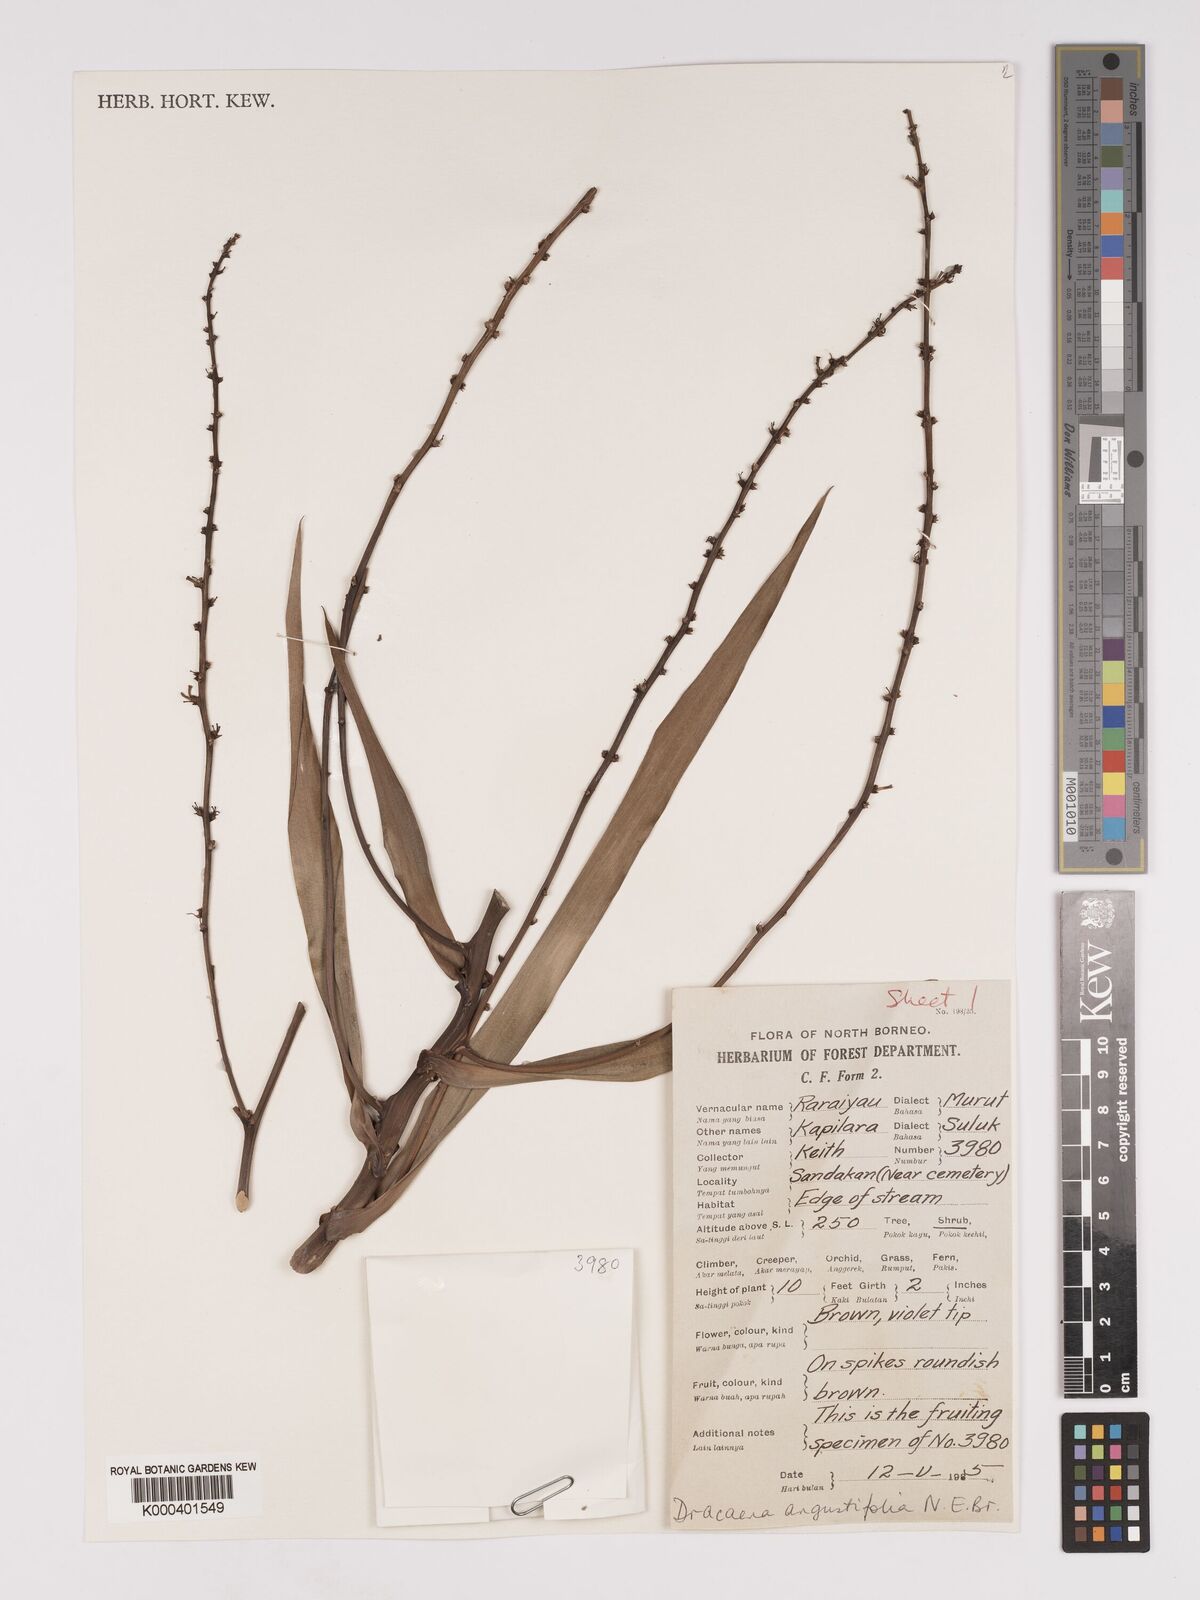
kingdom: Plantae
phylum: Tracheophyta
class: Liliopsida
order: Asparagales
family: Asparagaceae
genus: Dracaena
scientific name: Dracaena angustifolia
